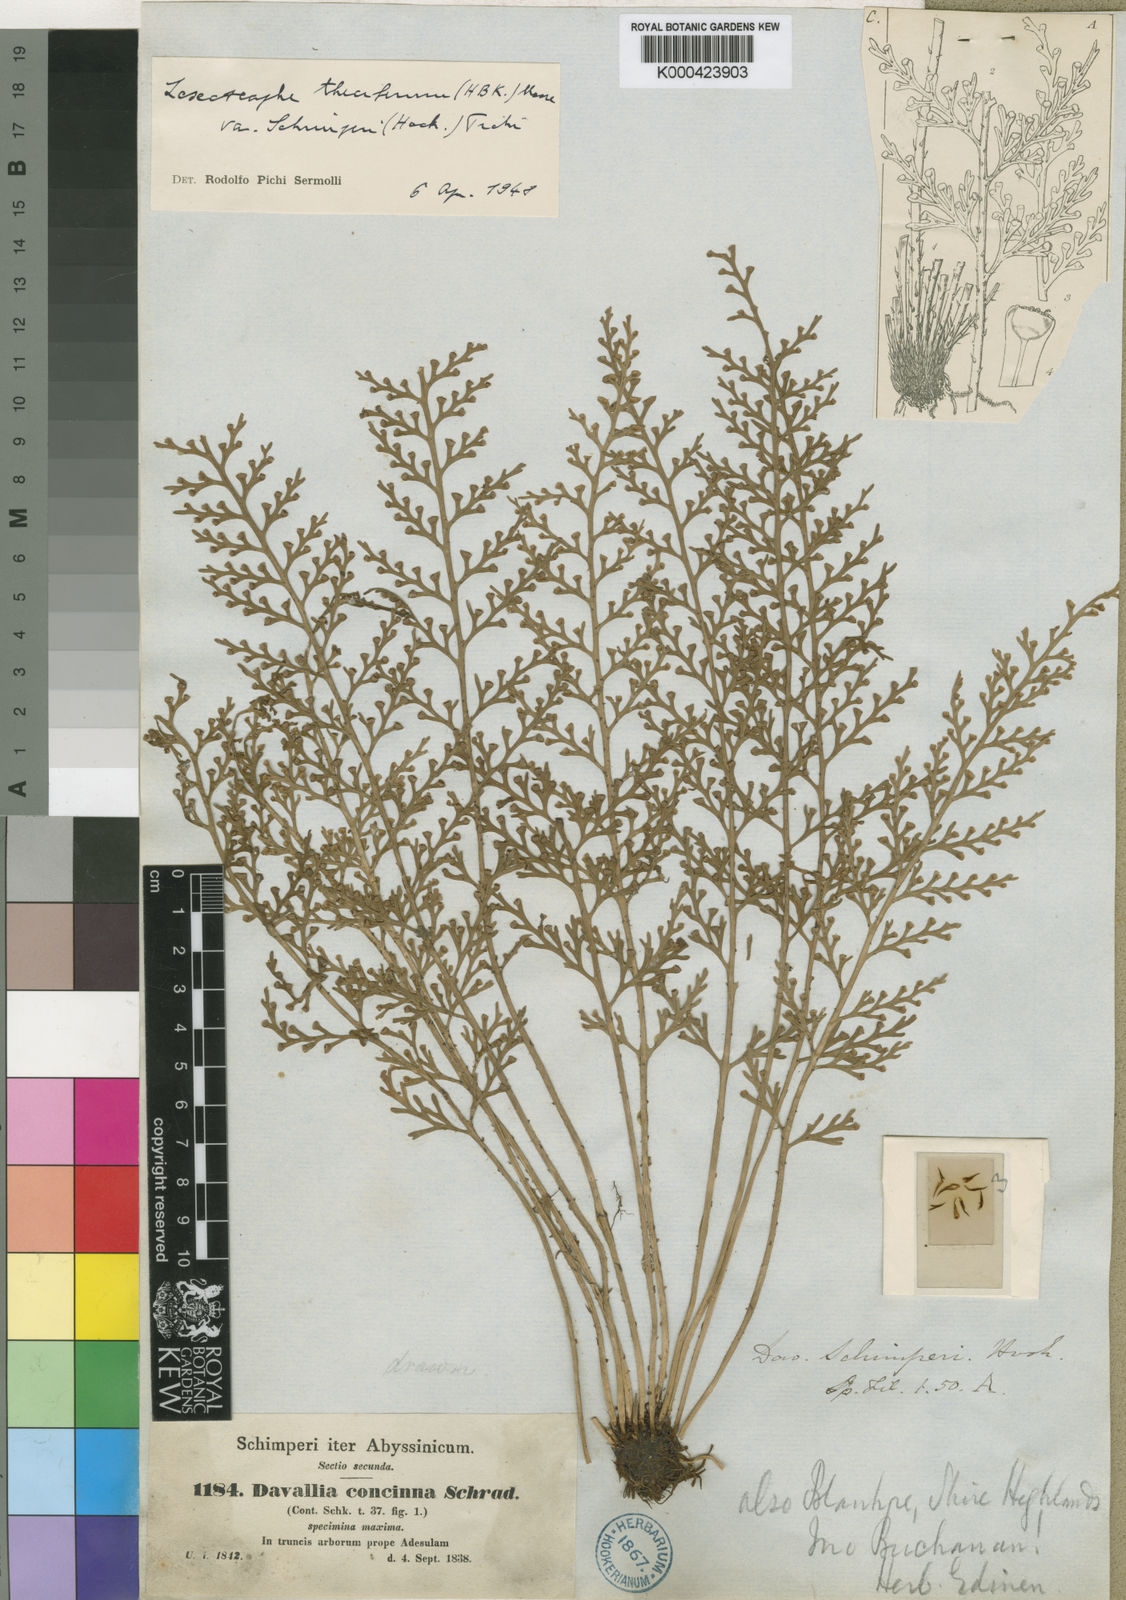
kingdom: Plantae
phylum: Tracheophyta
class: Polypodiopsida
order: Polypodiales
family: Aspleniaceae
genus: Asplenium
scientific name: Asplenium theciferum
